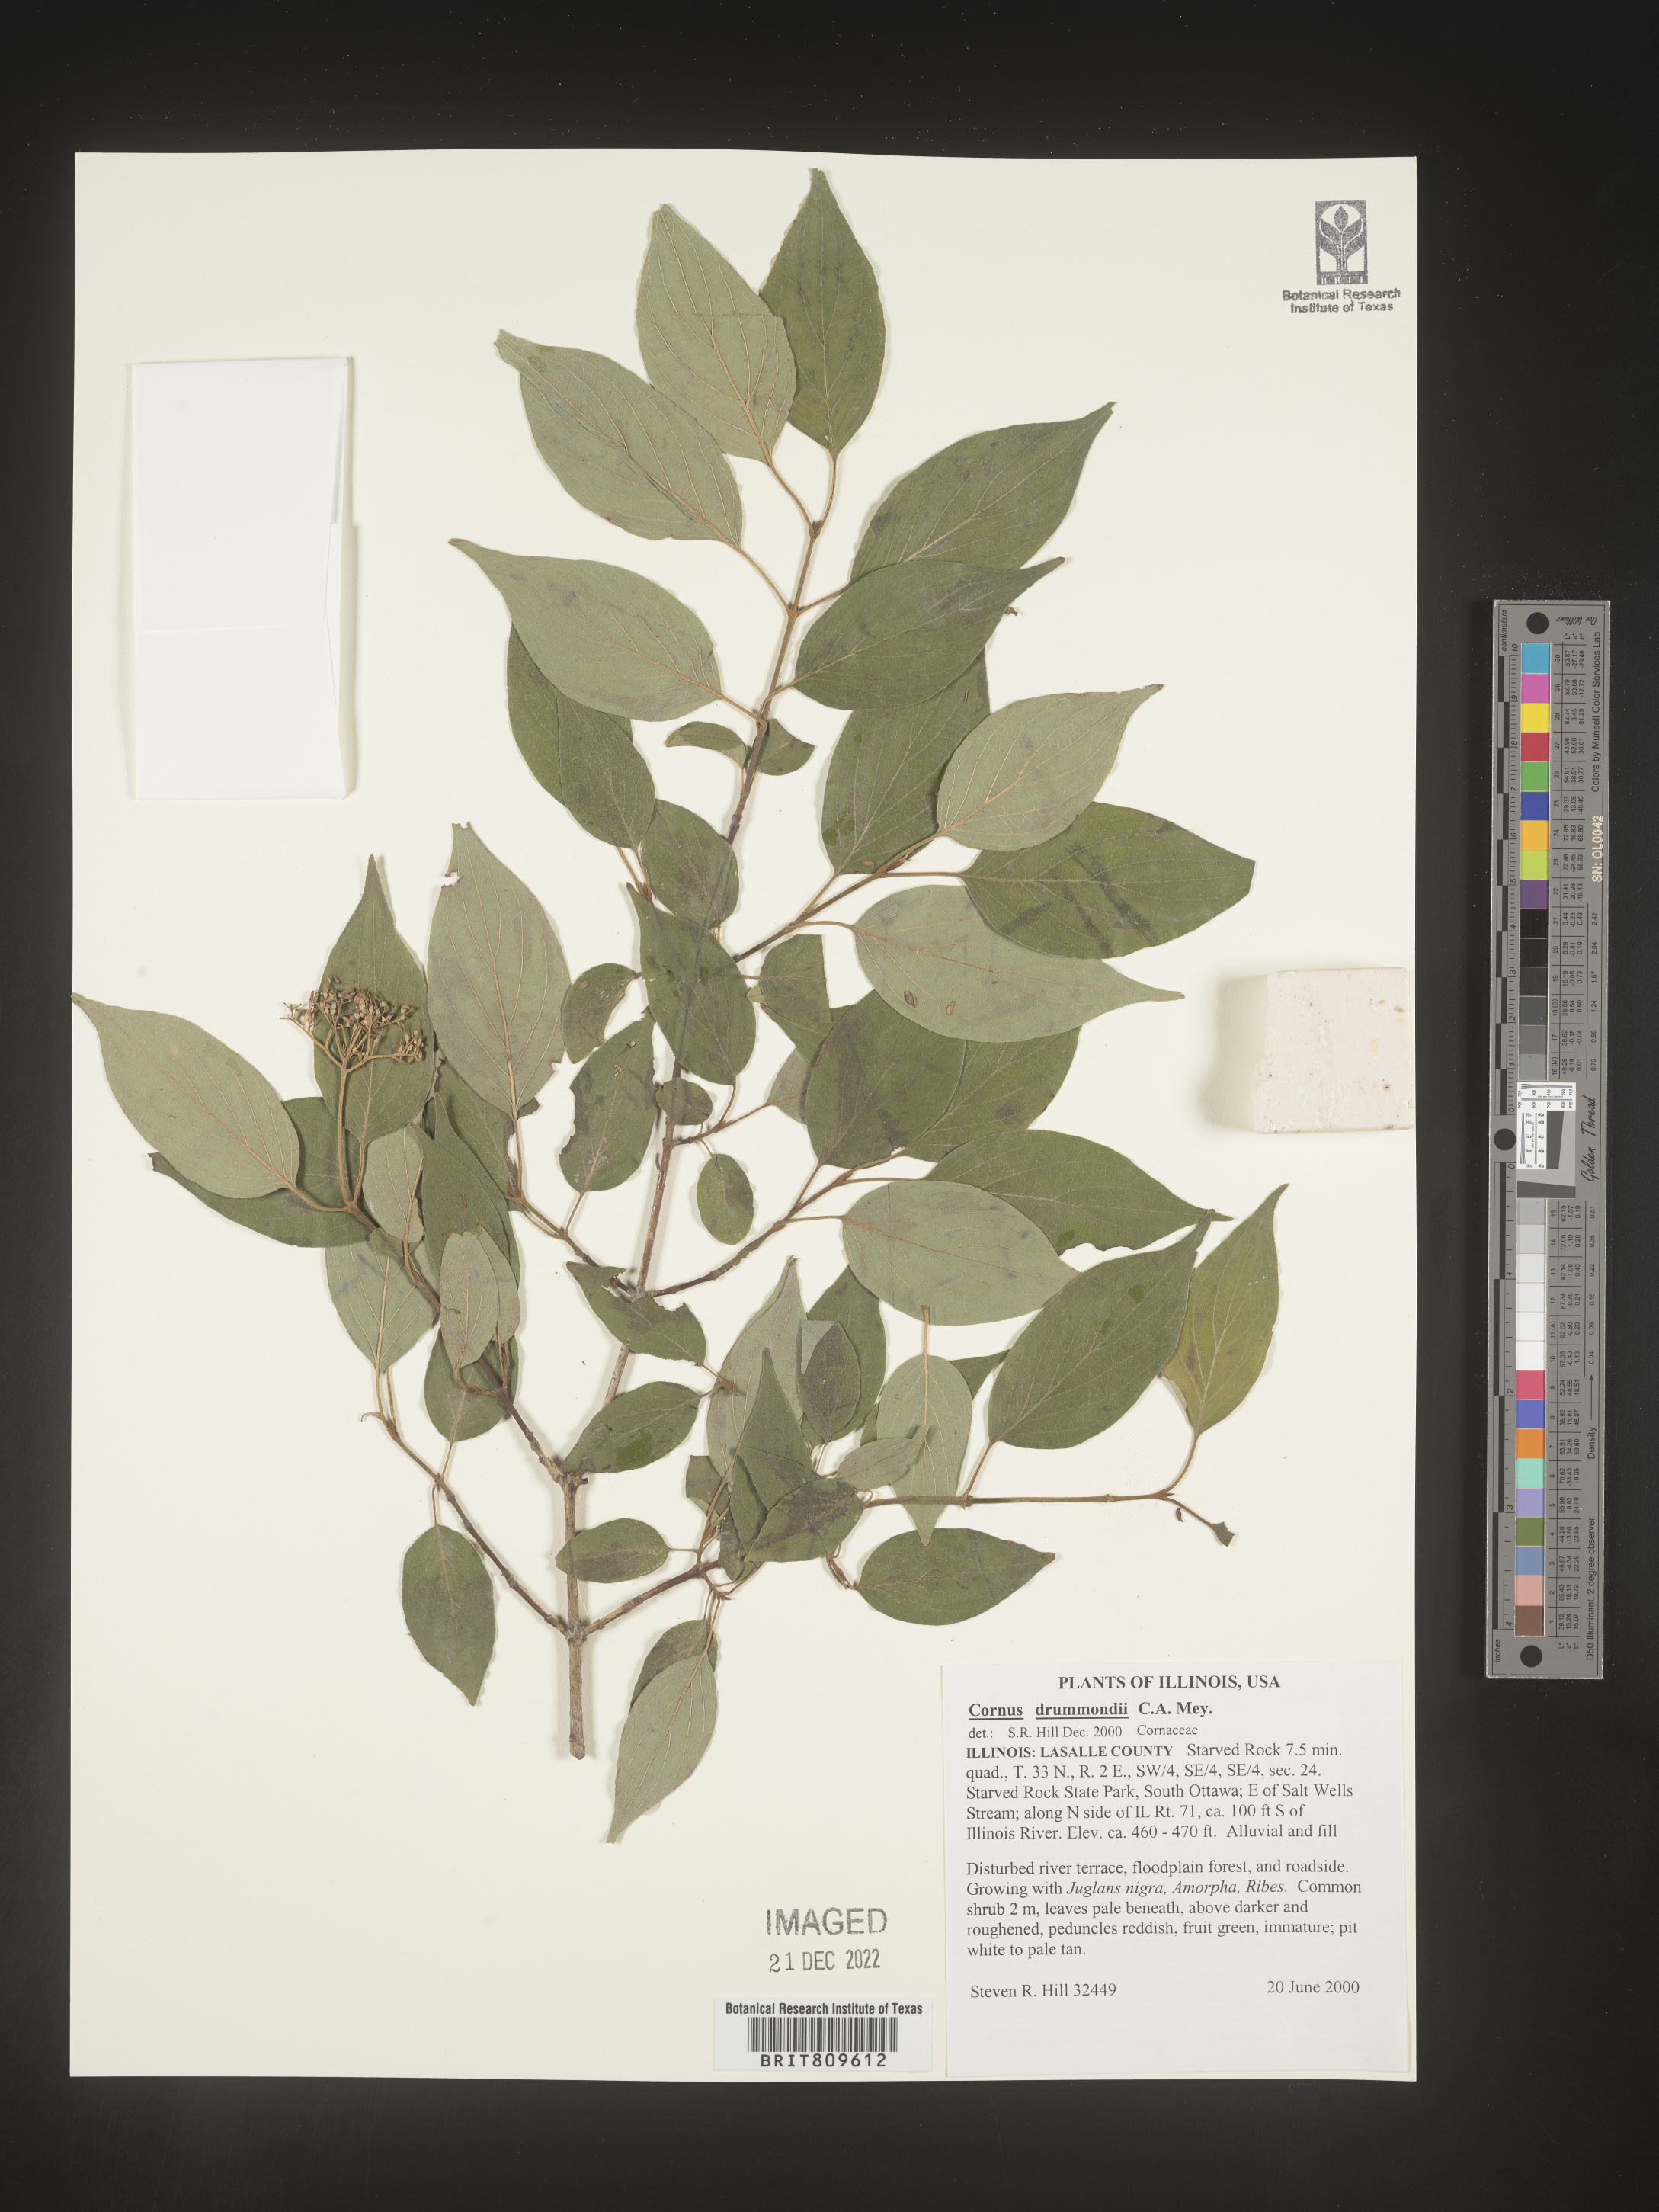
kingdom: Plantae
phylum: Tracheophyta
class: Magnoliopsida
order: Cornales
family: Cornaceae
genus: Cornus
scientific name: Cornus drummondii
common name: Rough-leaf dogwood
